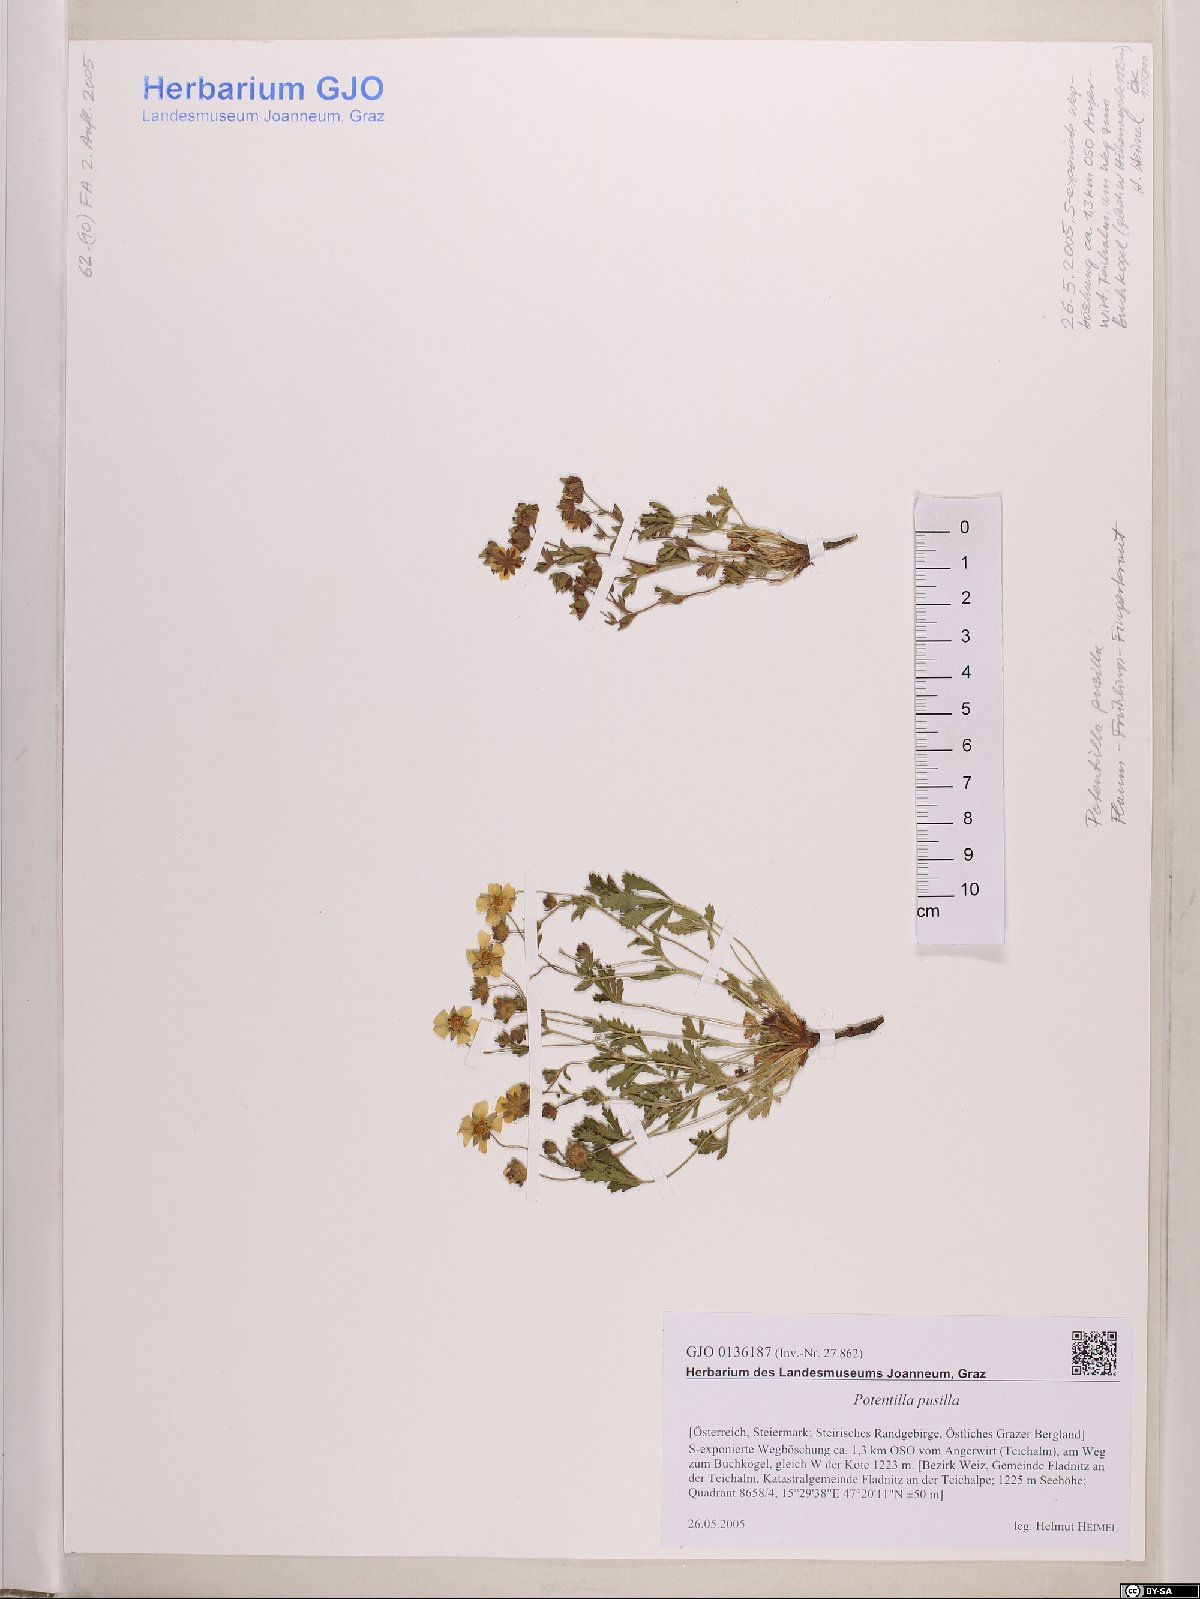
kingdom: Plantae
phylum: Tracheophyta
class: Magnoliopsida
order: Rosales
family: Rosaceae
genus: Potentilla
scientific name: Potentilla pusilla
